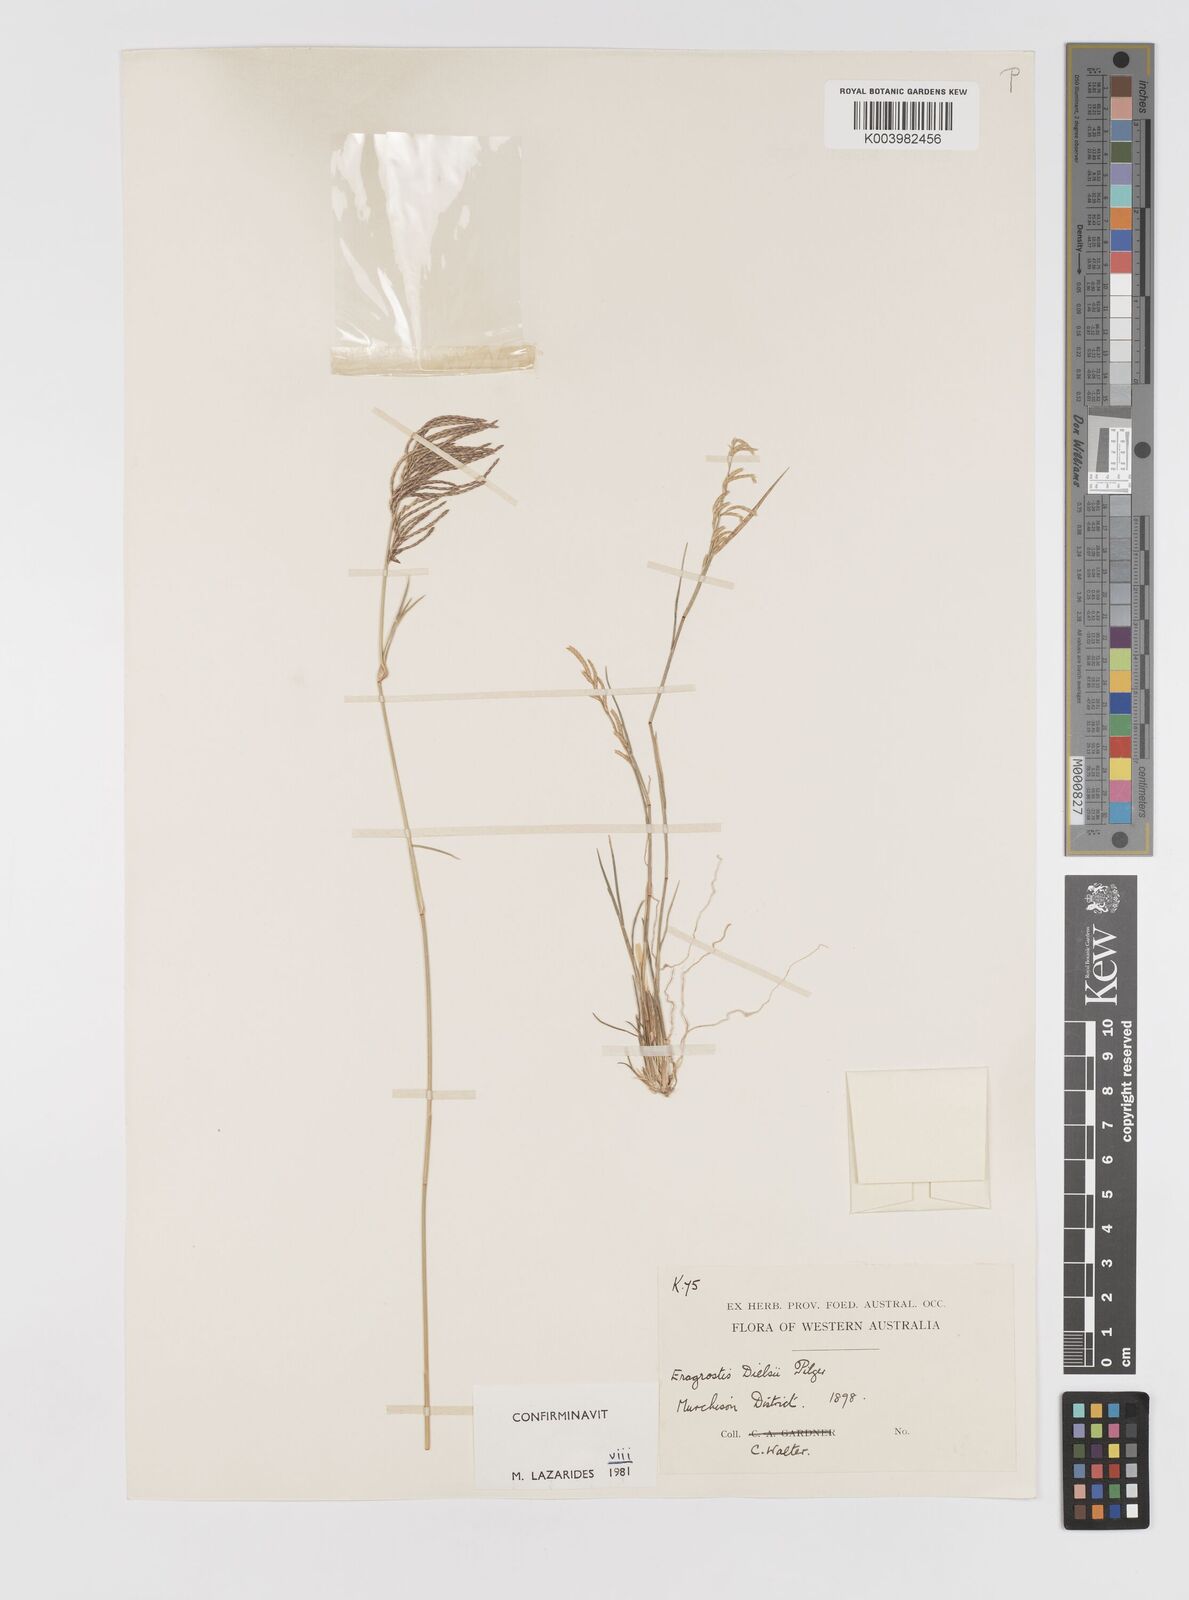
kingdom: Plantae
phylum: Tracheophyta
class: Liliopsida
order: Poales
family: Poaceae
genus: Eragrostis
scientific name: Eragrostis dielsii
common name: Lovegrass
